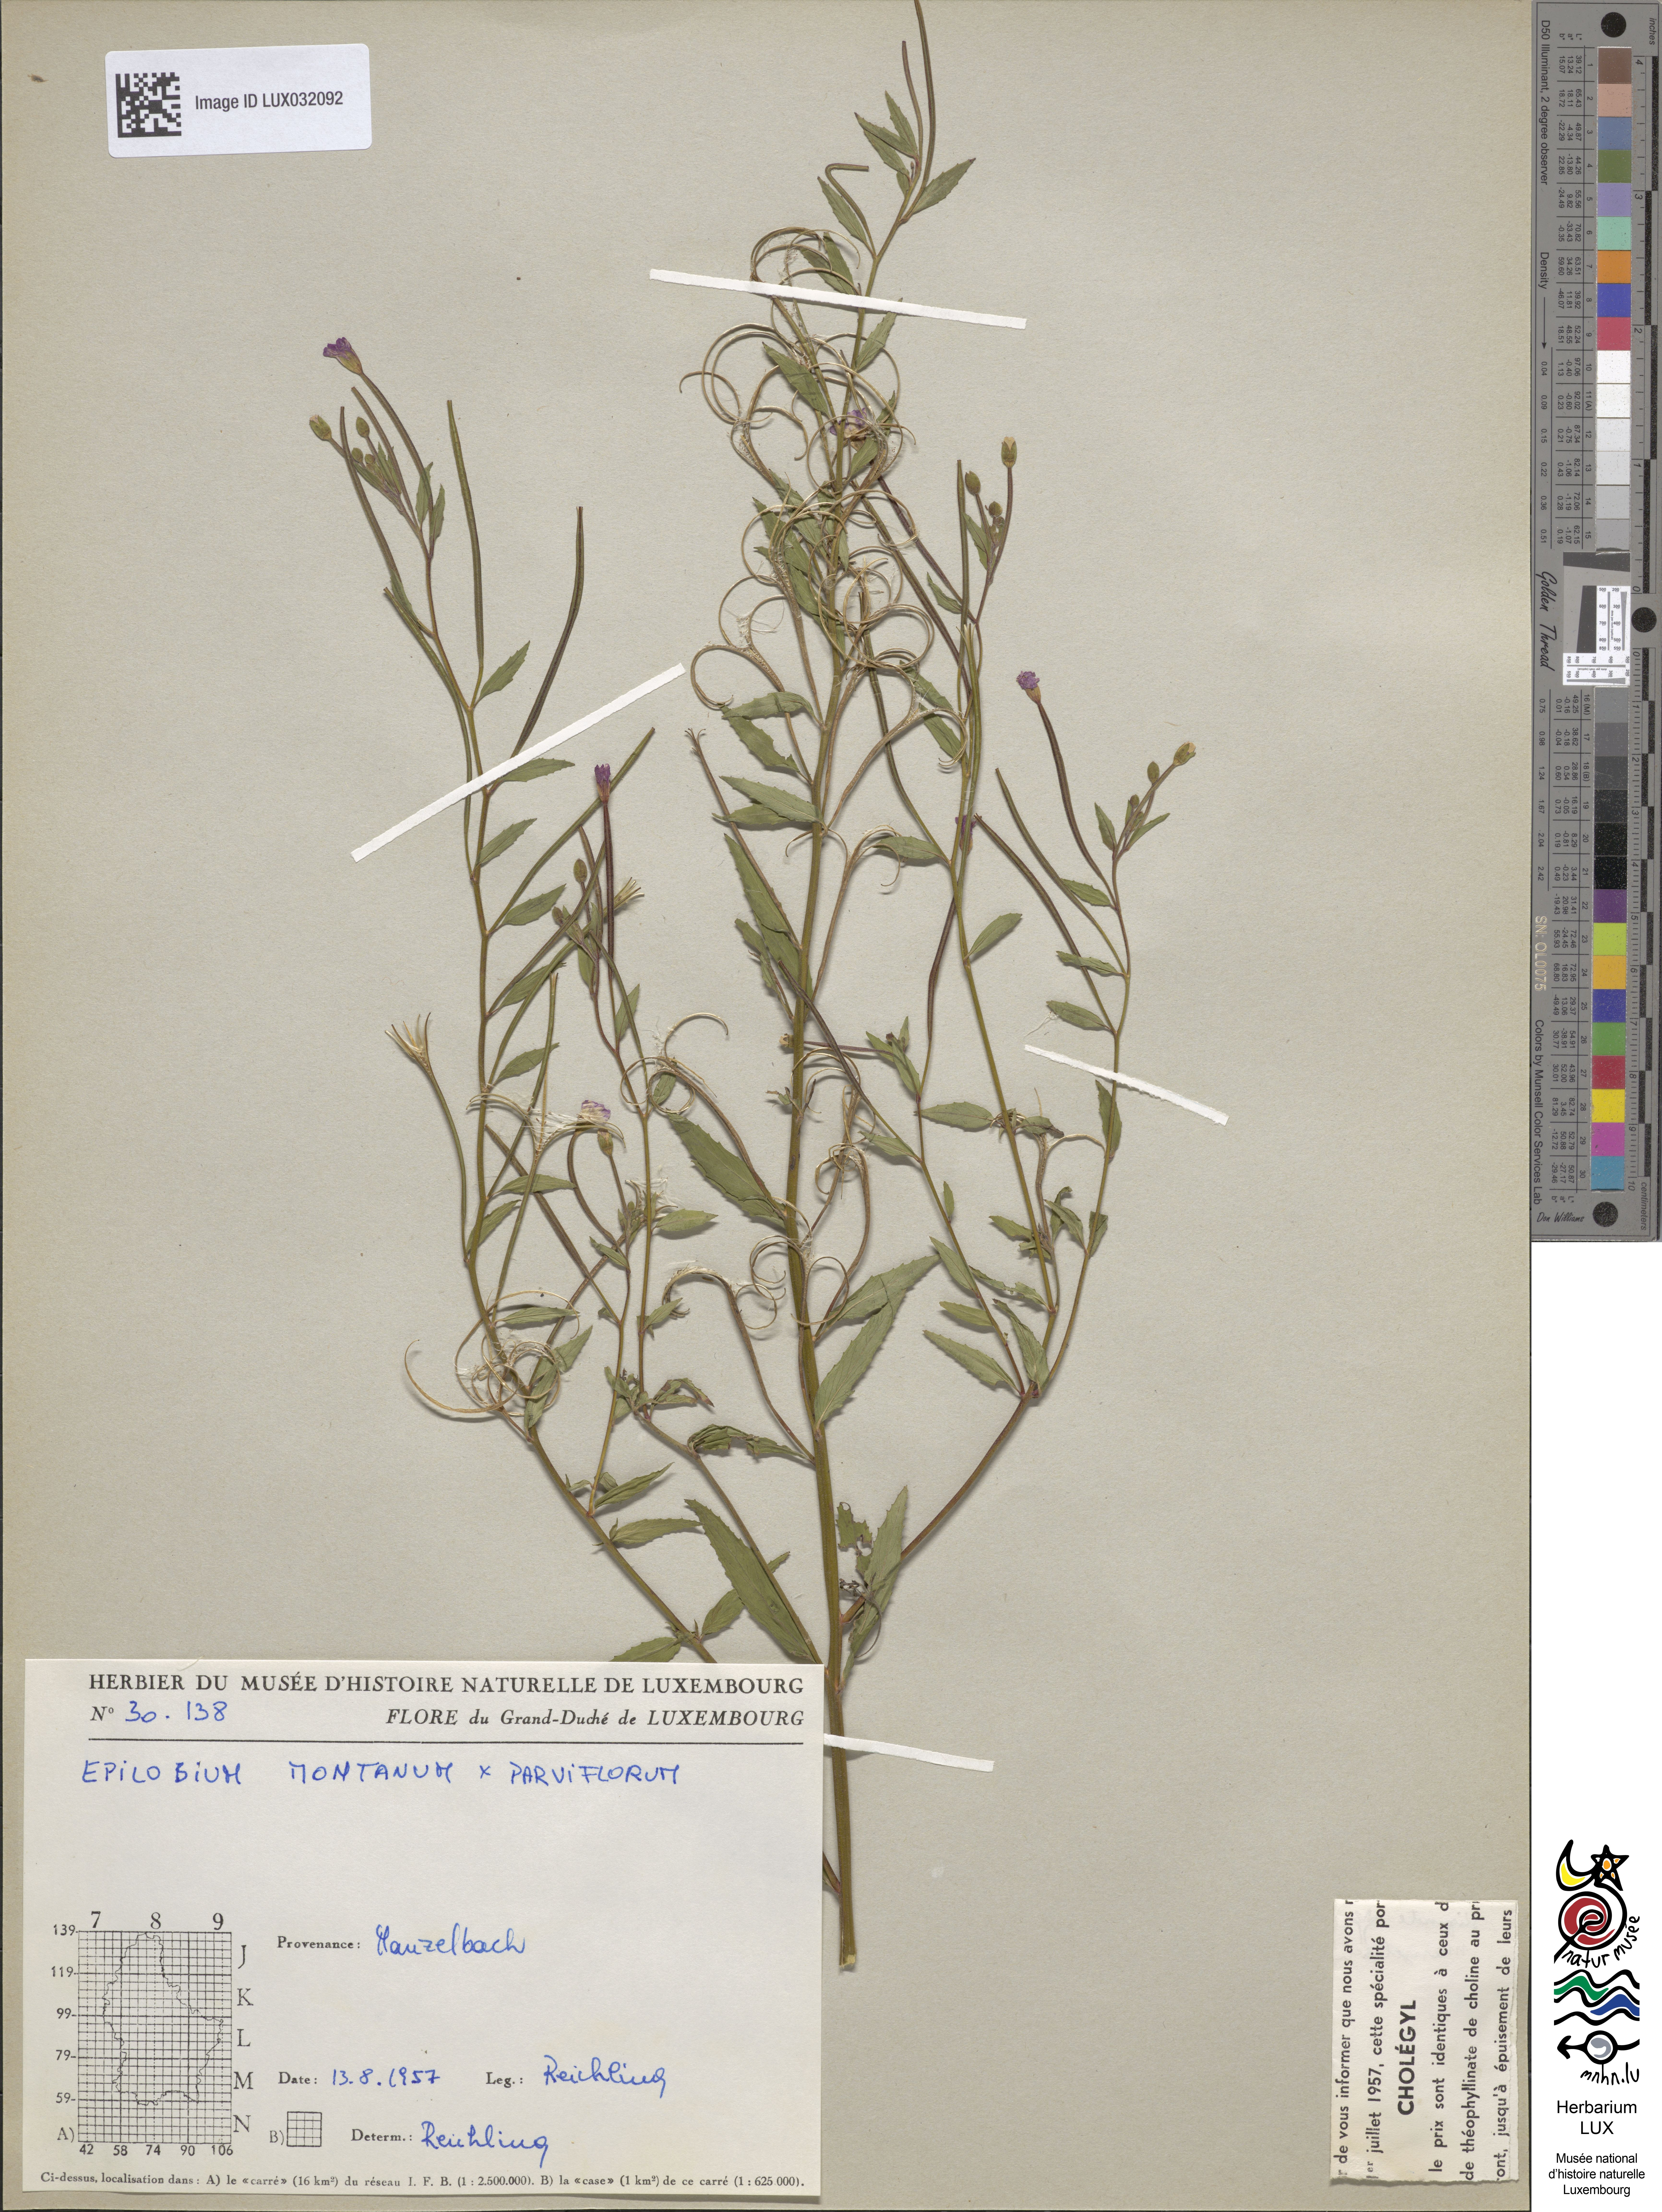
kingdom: Plantae
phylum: Tracheophyta
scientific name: Tracheophyta
